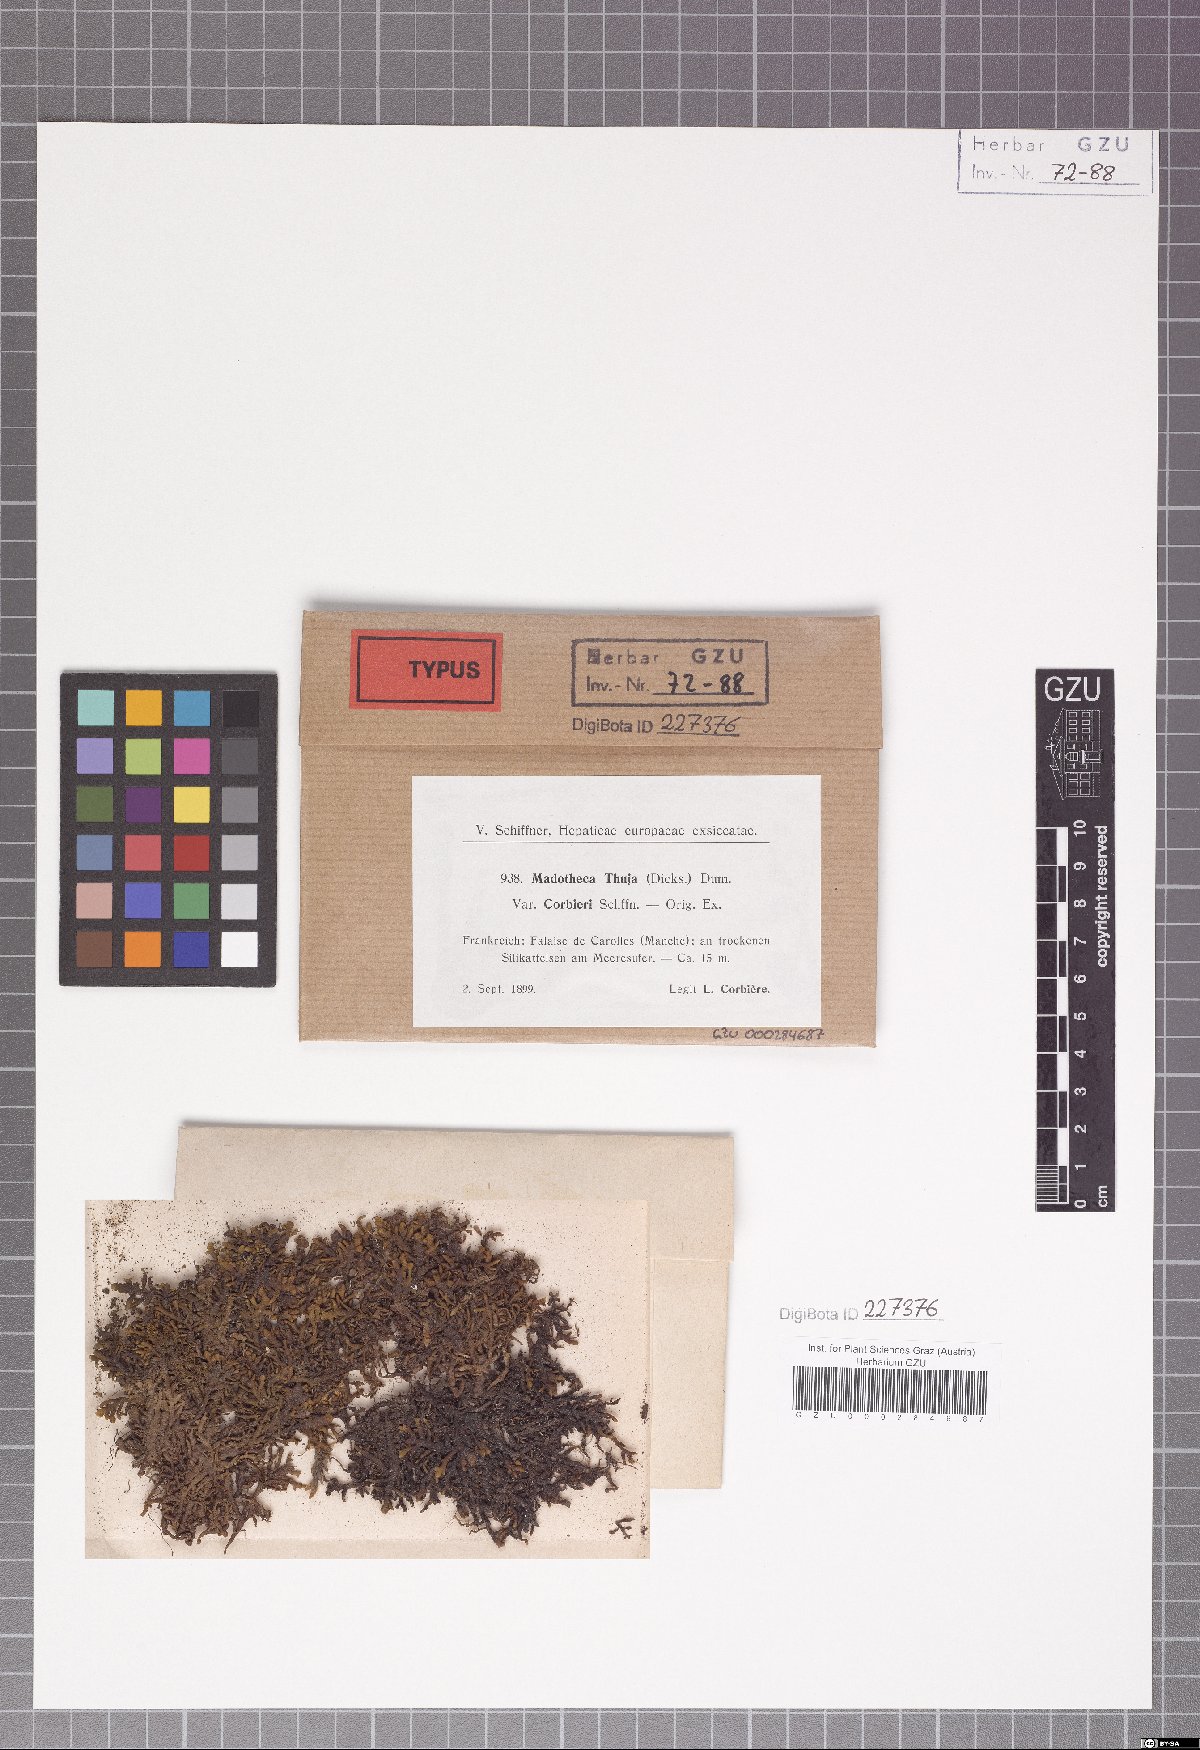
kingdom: Plantae
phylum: Marchantiophyta
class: Jungermanniopsida
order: Porellales
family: Porellaceae
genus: Porella
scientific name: Porella arboris-vitae
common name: Bitter scalewort
